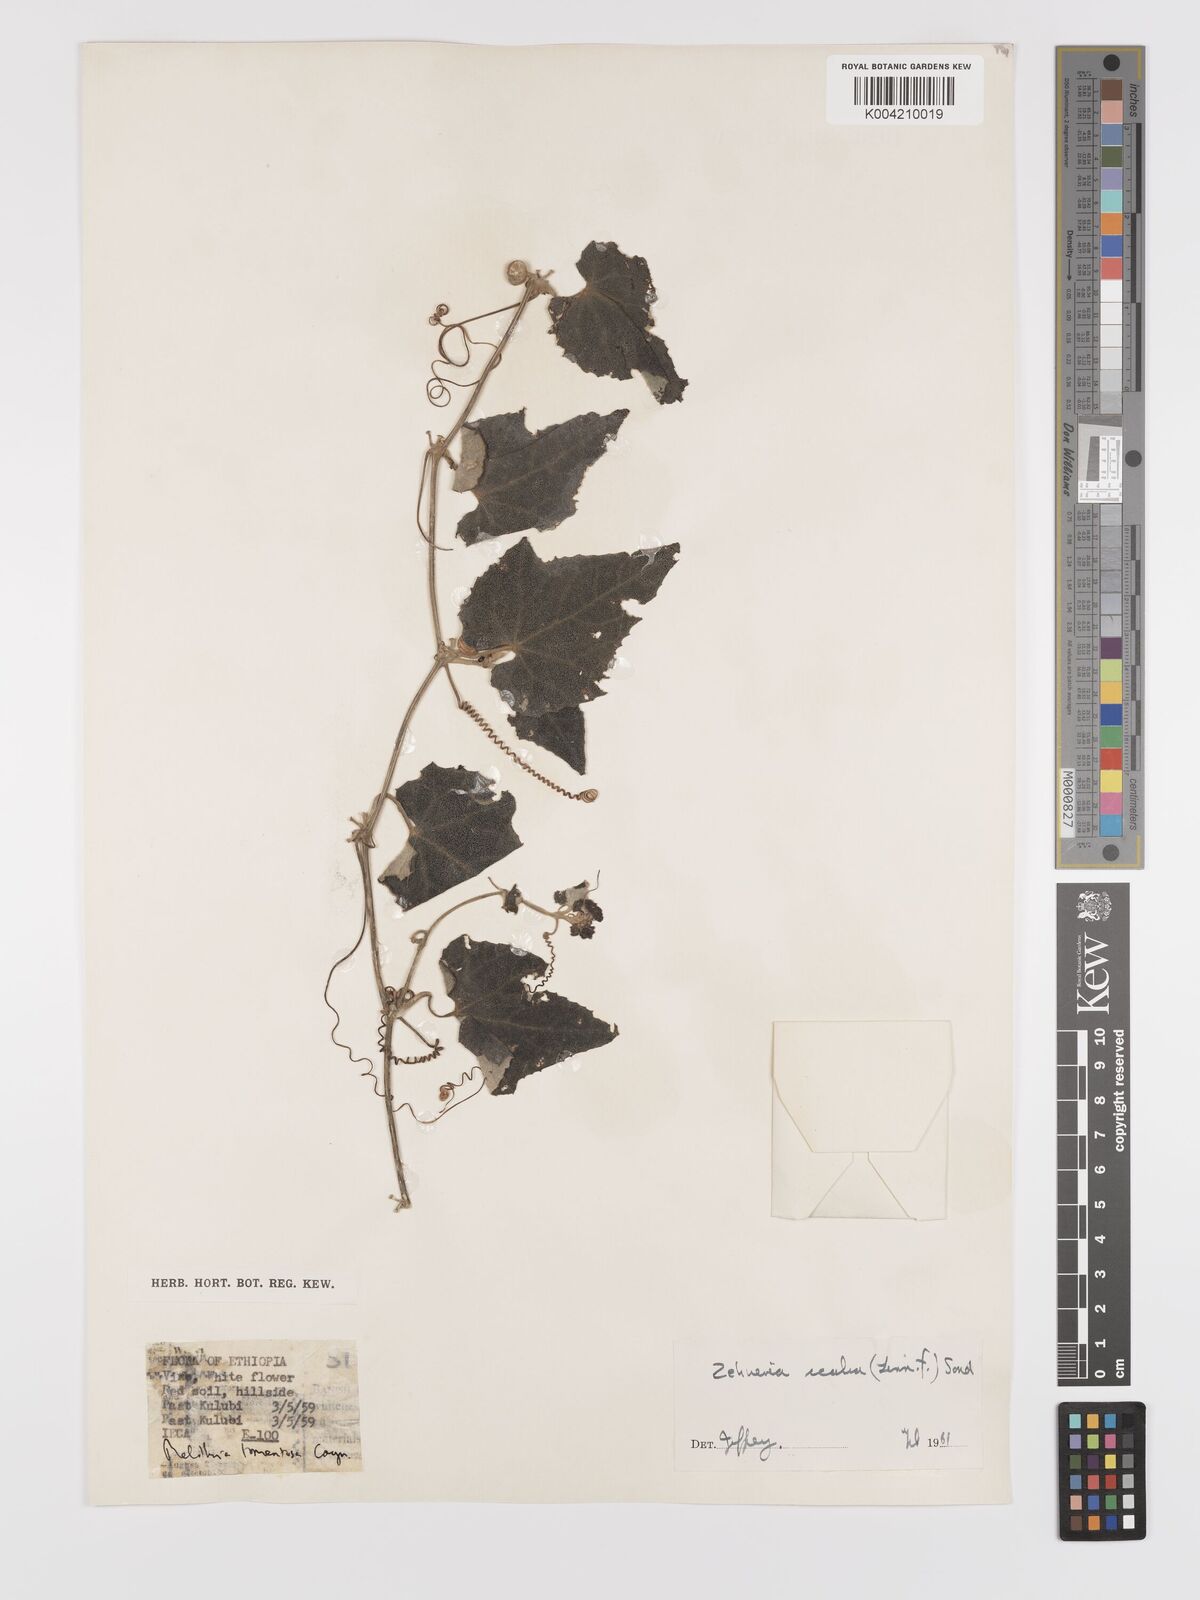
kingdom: Plantae
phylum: Tracheophyta
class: Magnoliopsida
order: Cucurbitales
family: Cucurbitaceae
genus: Zehneria
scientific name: Zehneria scabra
